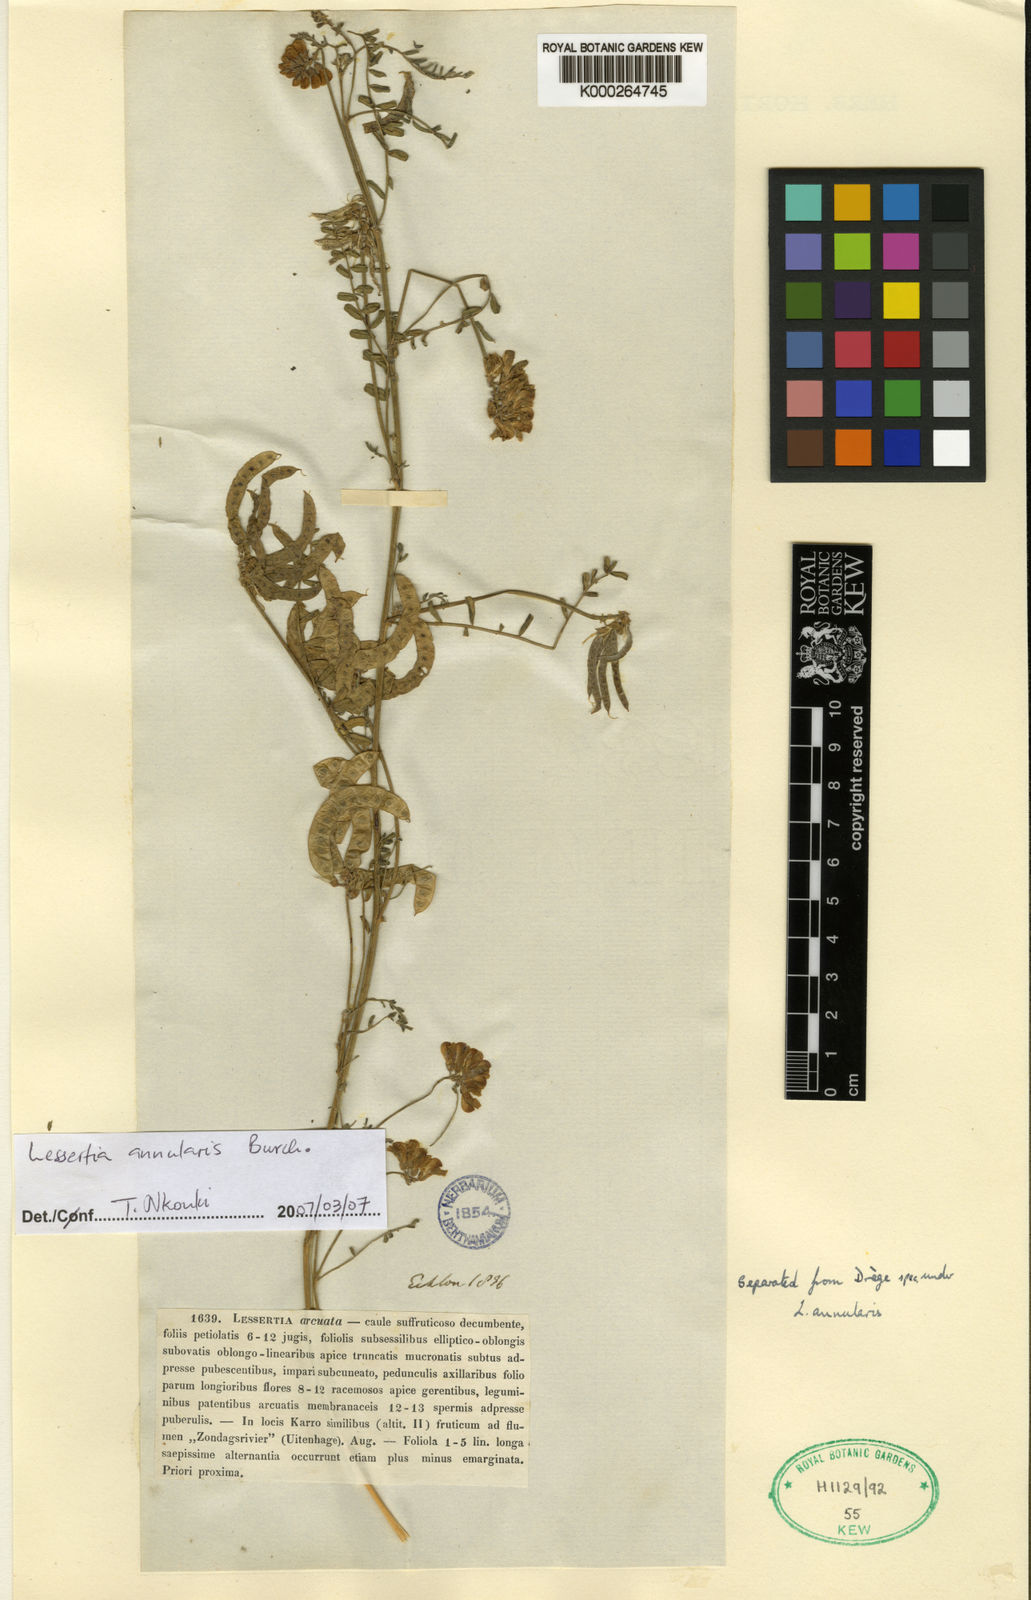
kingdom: Plantae
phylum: Tracheophyta
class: Magnoliopsida
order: Fabales
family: Fabaceae
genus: Lessertia
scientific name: Lessertia annularis
